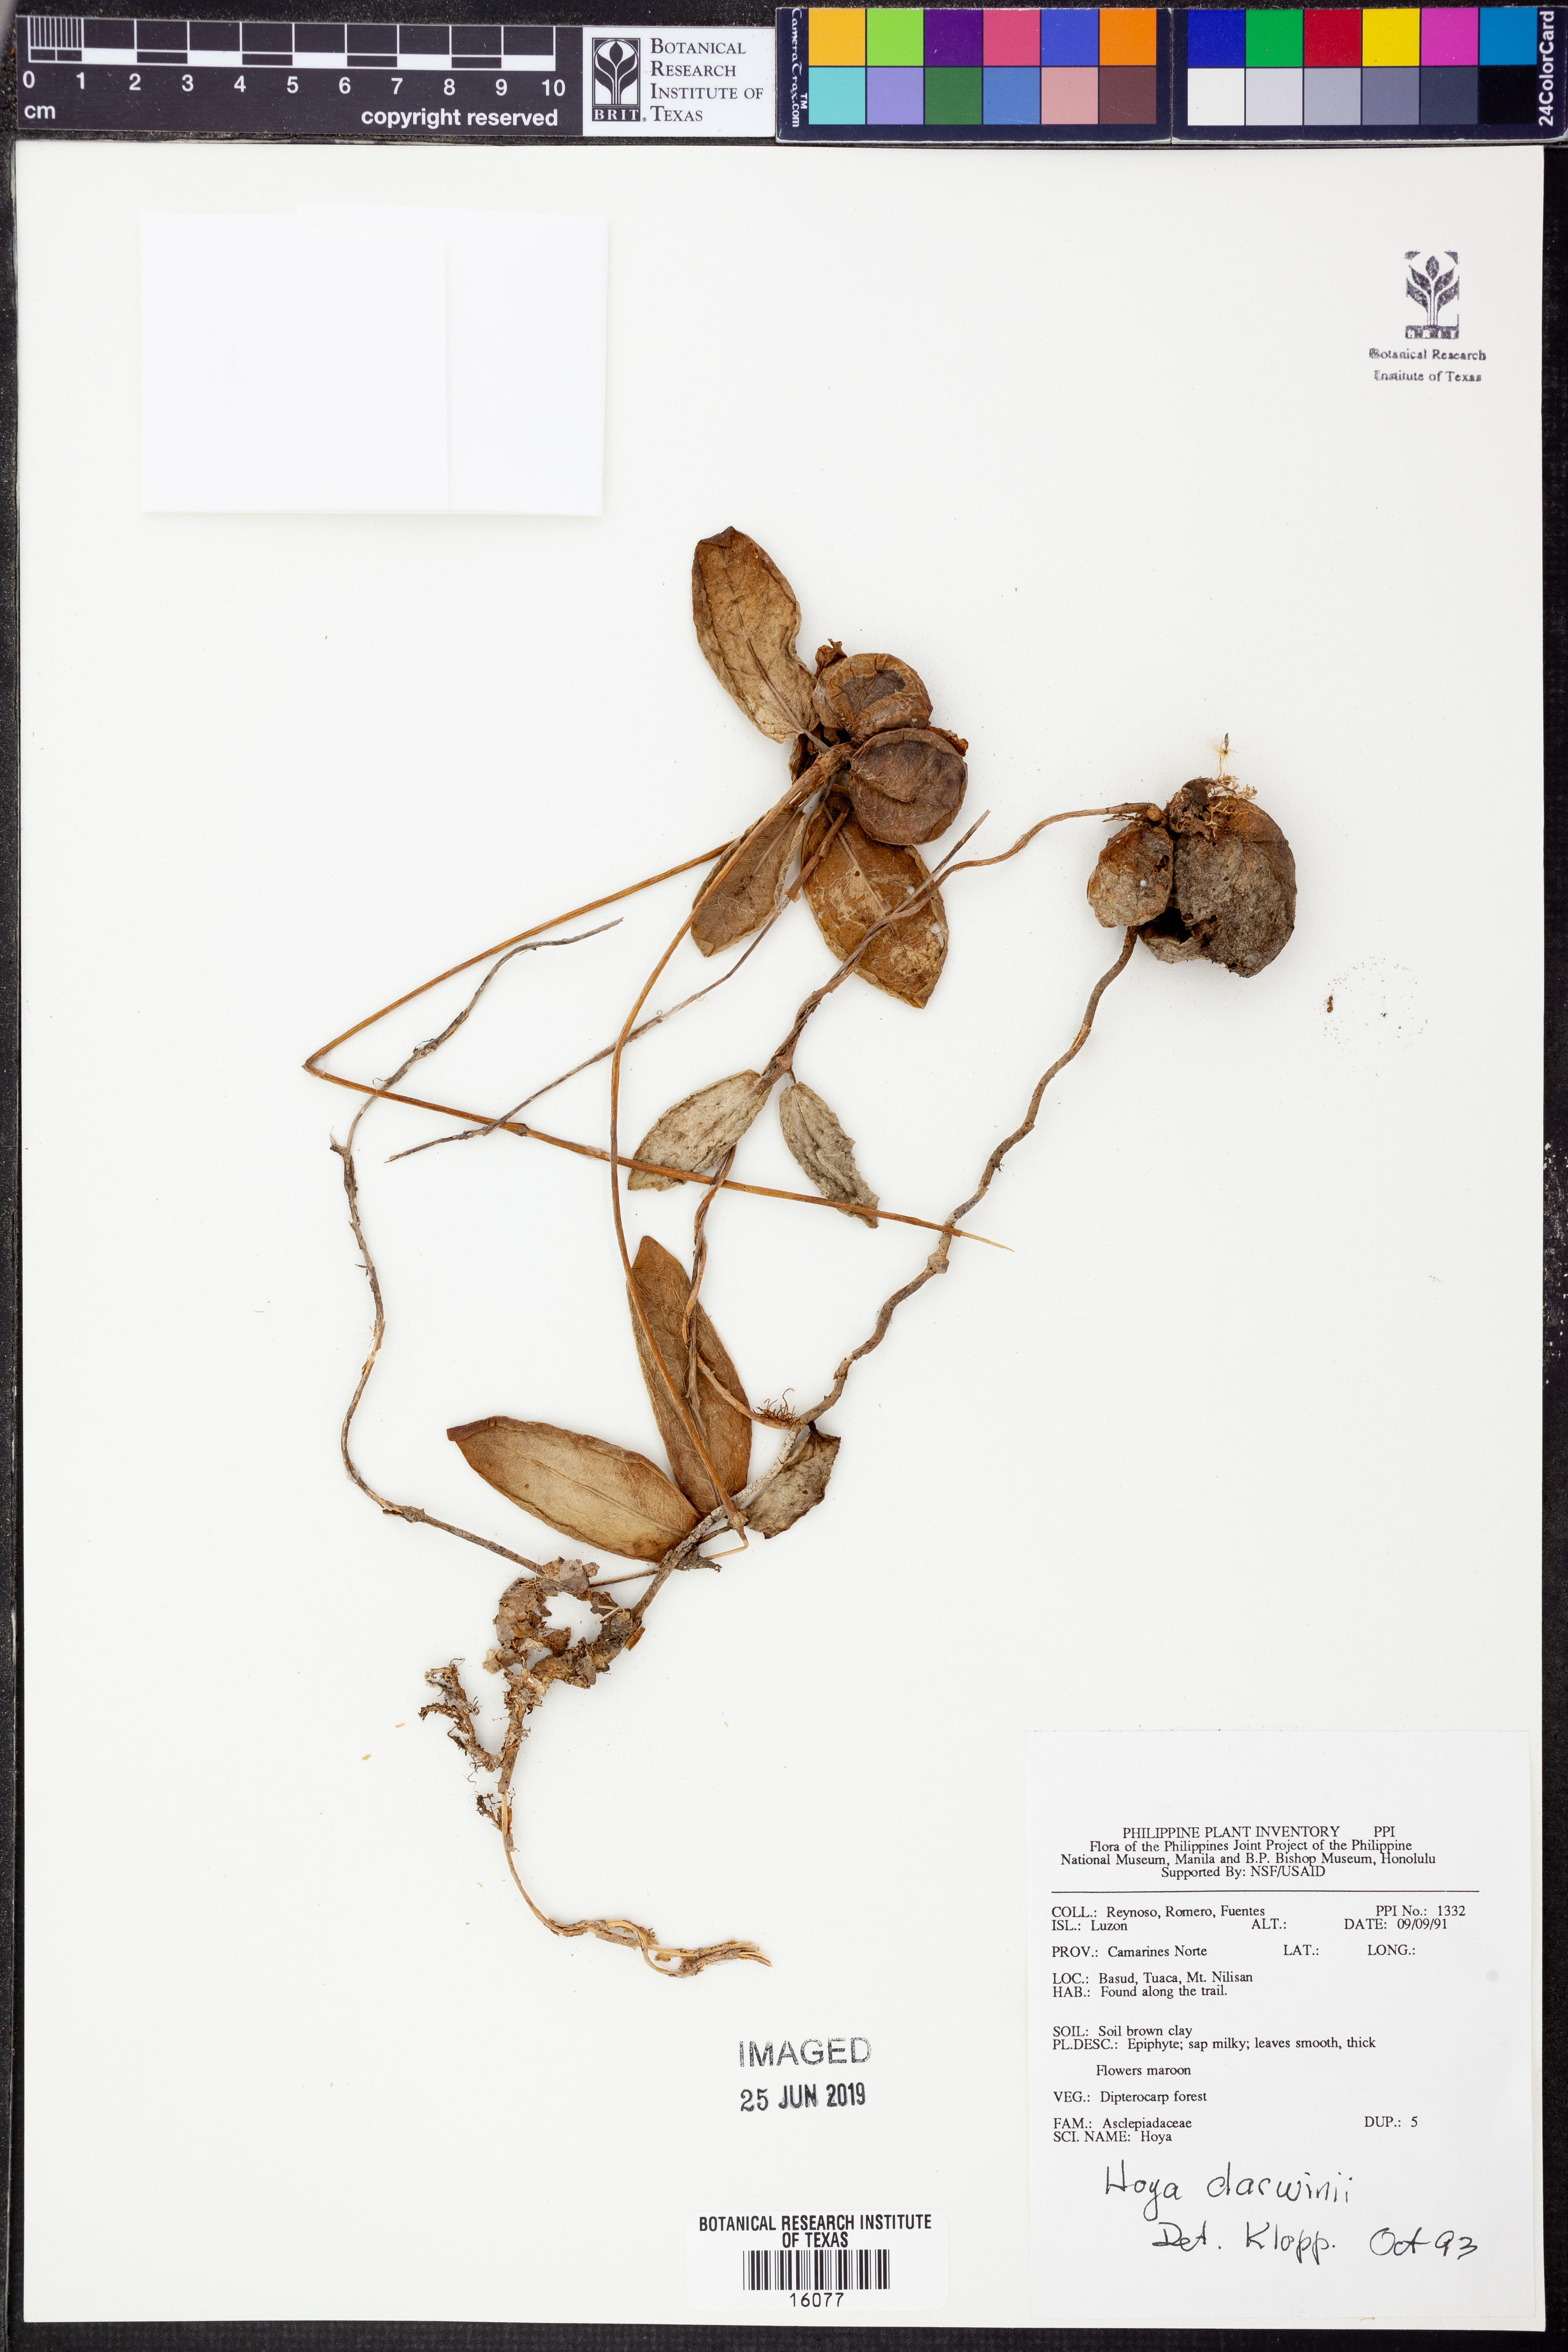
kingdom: Plantae
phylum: Tracheophyta
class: Magnoliopsida
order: Gentianales
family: Apocynaceae
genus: Hoya
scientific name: Hoya mitrata
